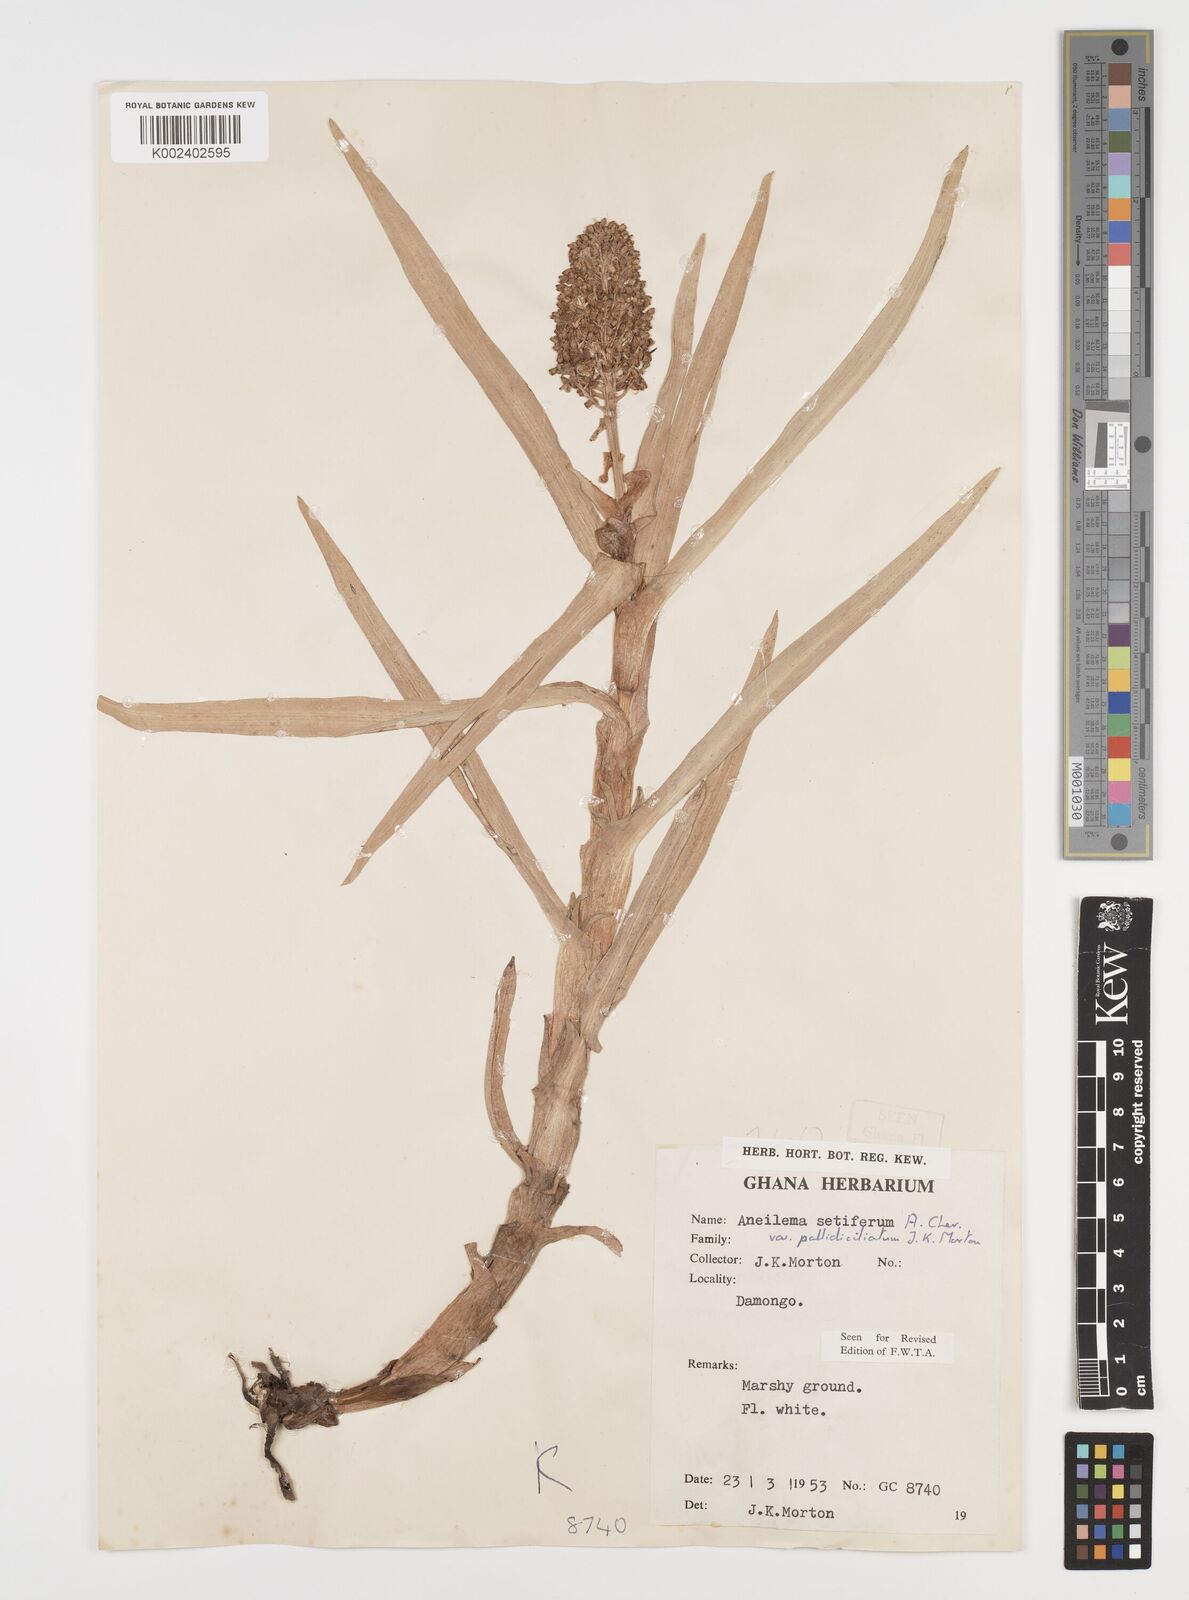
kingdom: Plantae
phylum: Tracheophyta
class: Liliopsida
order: Commelinales
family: Commelinaceae
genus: Aneilema
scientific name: Aneilema setiferum
